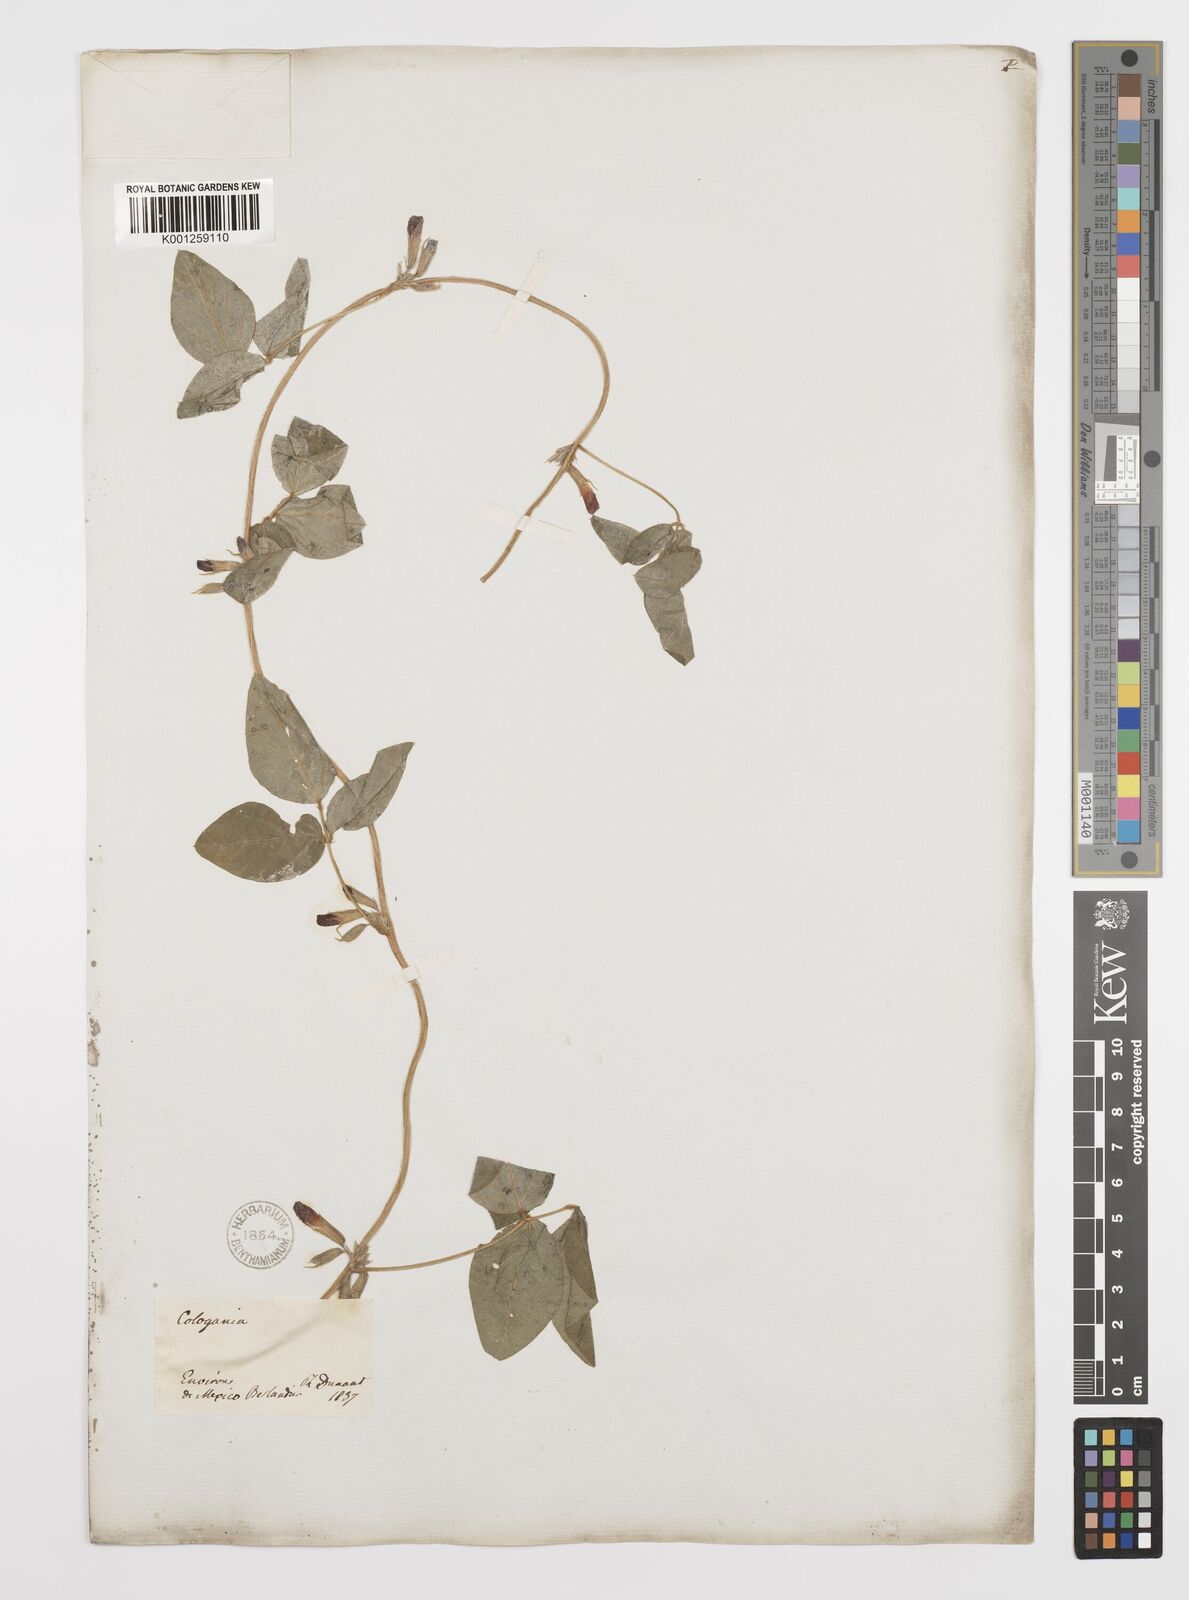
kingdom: Plantae
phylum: Tracheophyta
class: Magnoliopsida
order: Fabales
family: Fabaceae
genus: Cologania
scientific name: Cologania broussonetii
